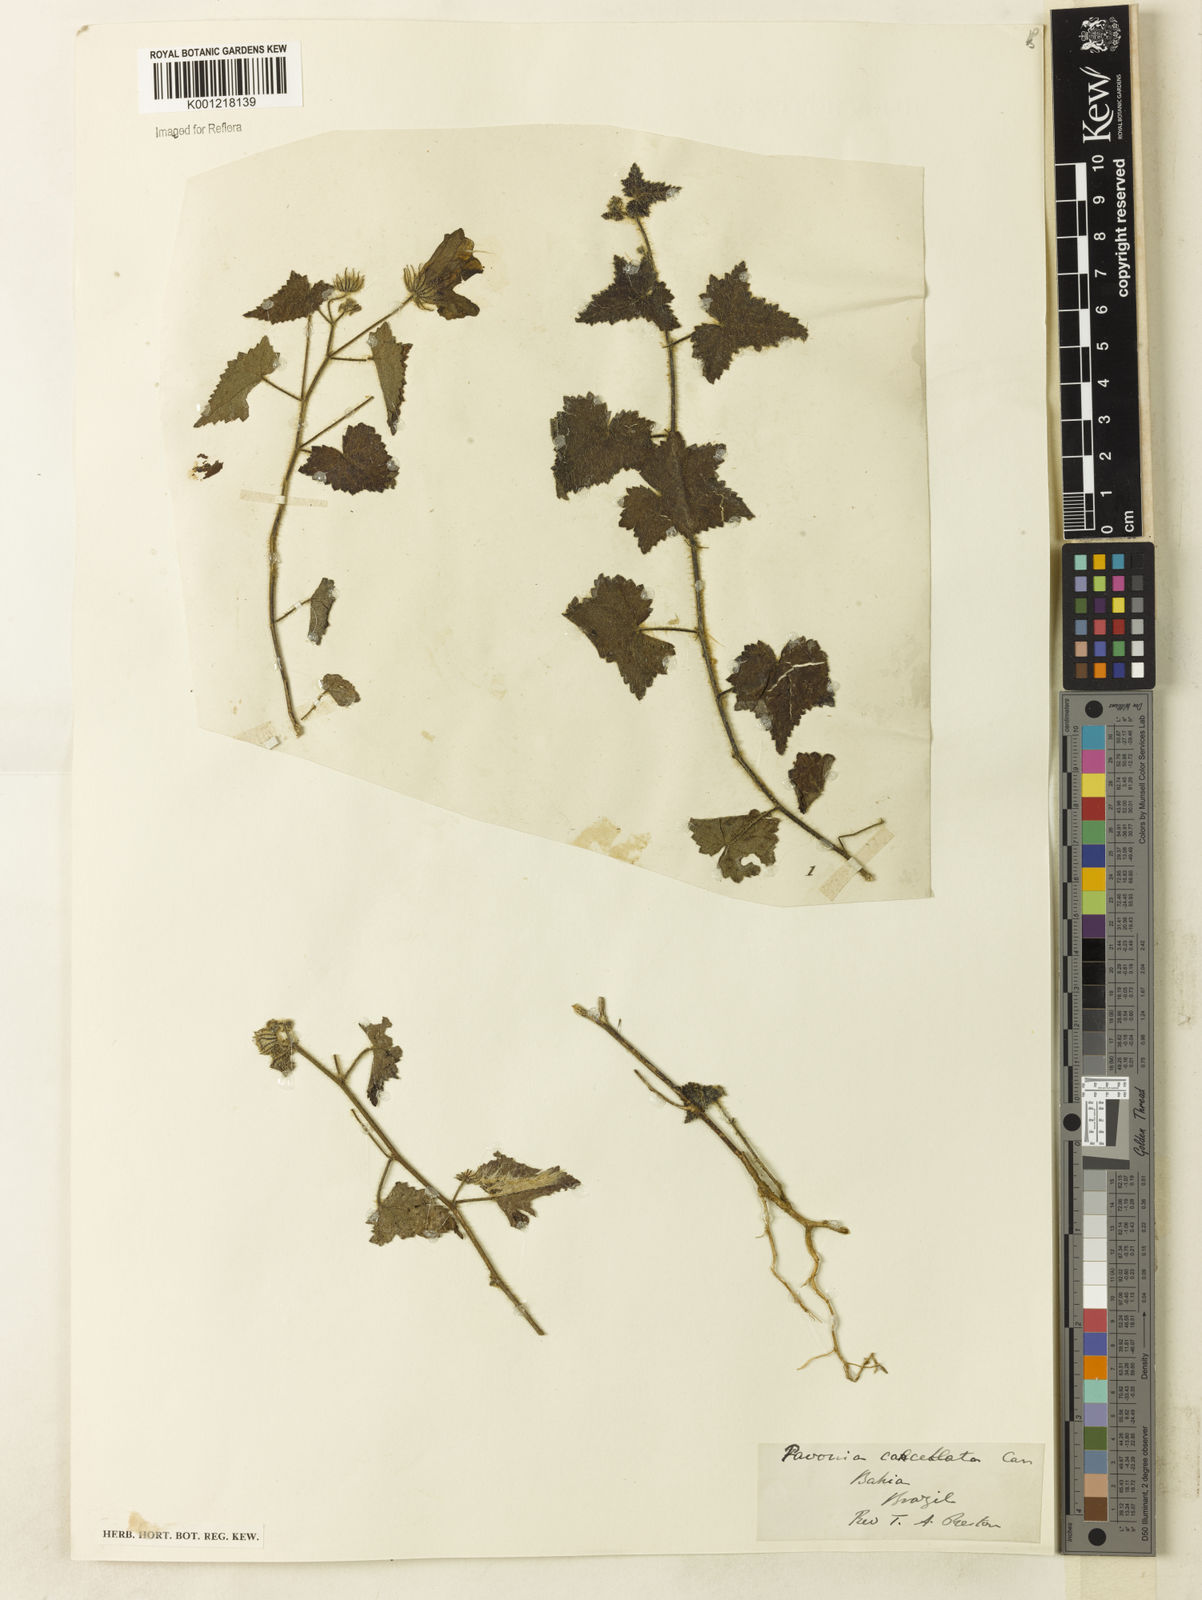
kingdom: Plantae
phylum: Tracheophyta
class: Magnoliopsida
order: Malvales
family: Malvaceae
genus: Pavonia
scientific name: Pavonia cancellata
